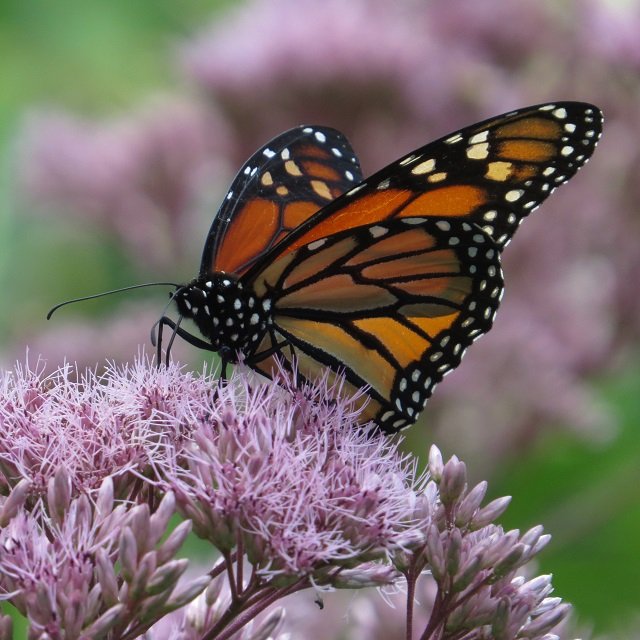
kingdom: Animalia
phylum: Arthropoda
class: Insecta
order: Lepidoptera
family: Nymphalidae
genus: Danaus
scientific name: Danaus plexippus
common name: Monarch
